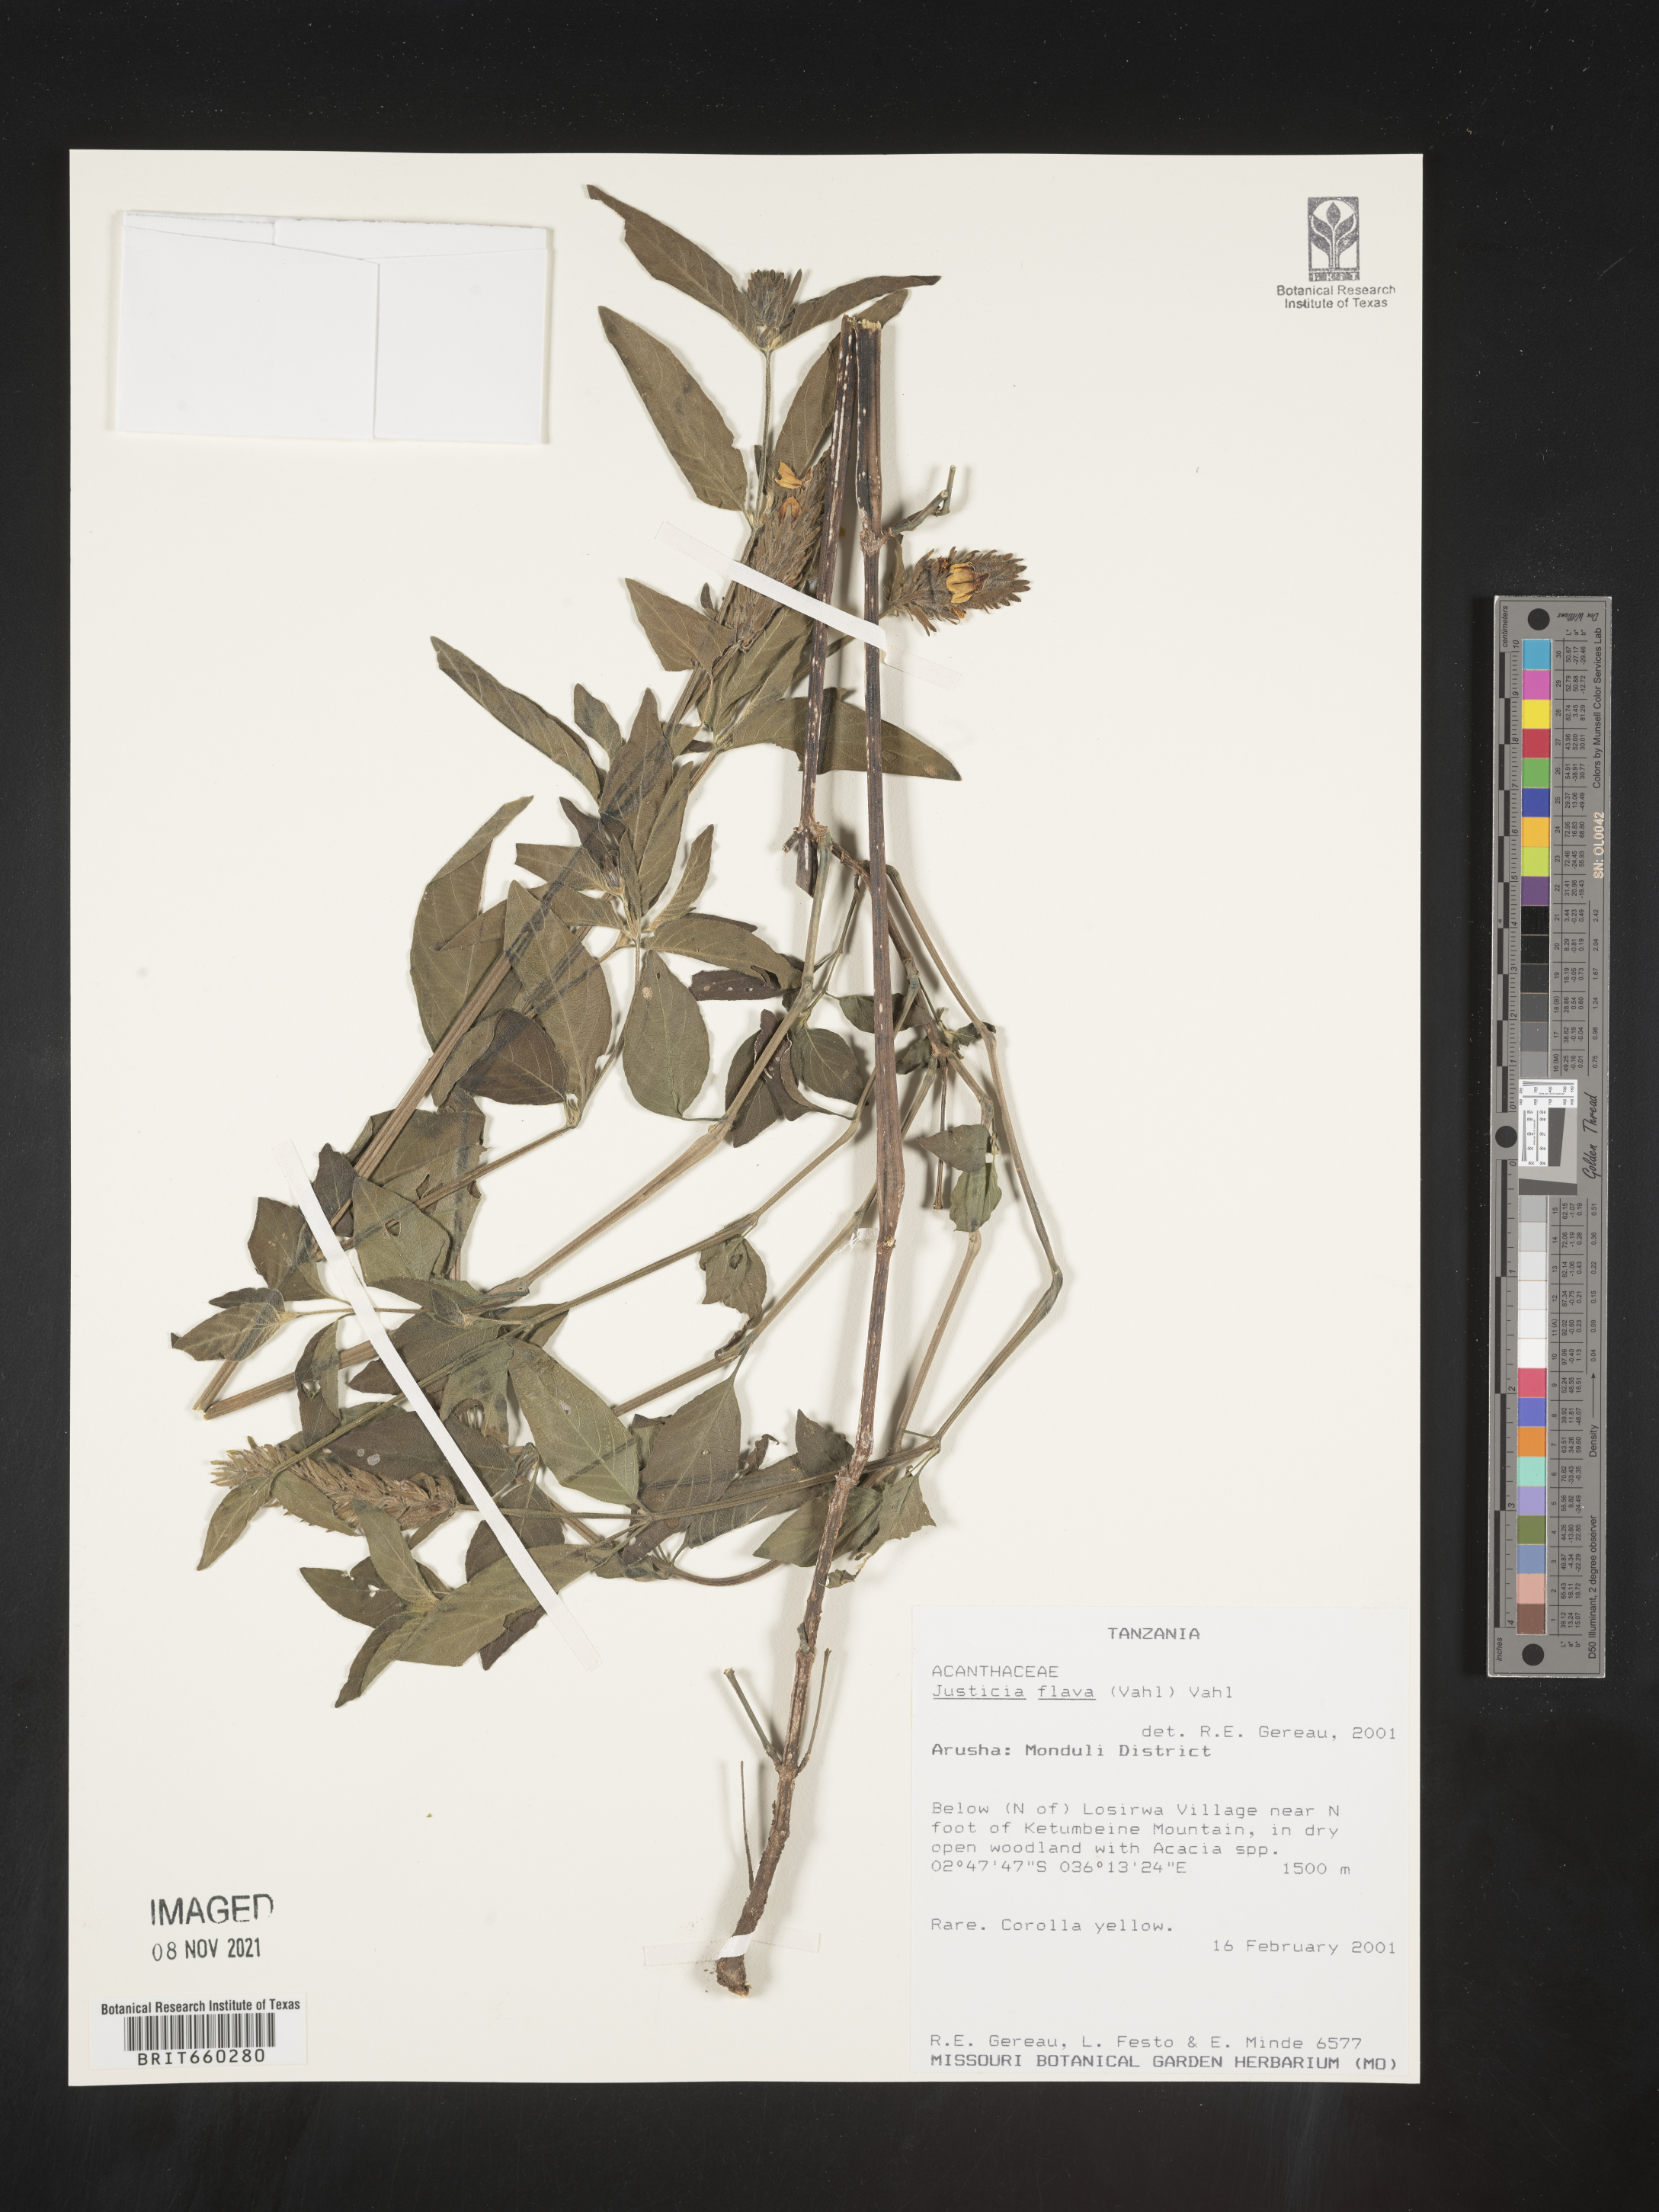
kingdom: Plantae
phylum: Tracheophyta
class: Magnoliopsida
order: Lamiales
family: Acanthaceae
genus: Justicia
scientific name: Justicia flava
